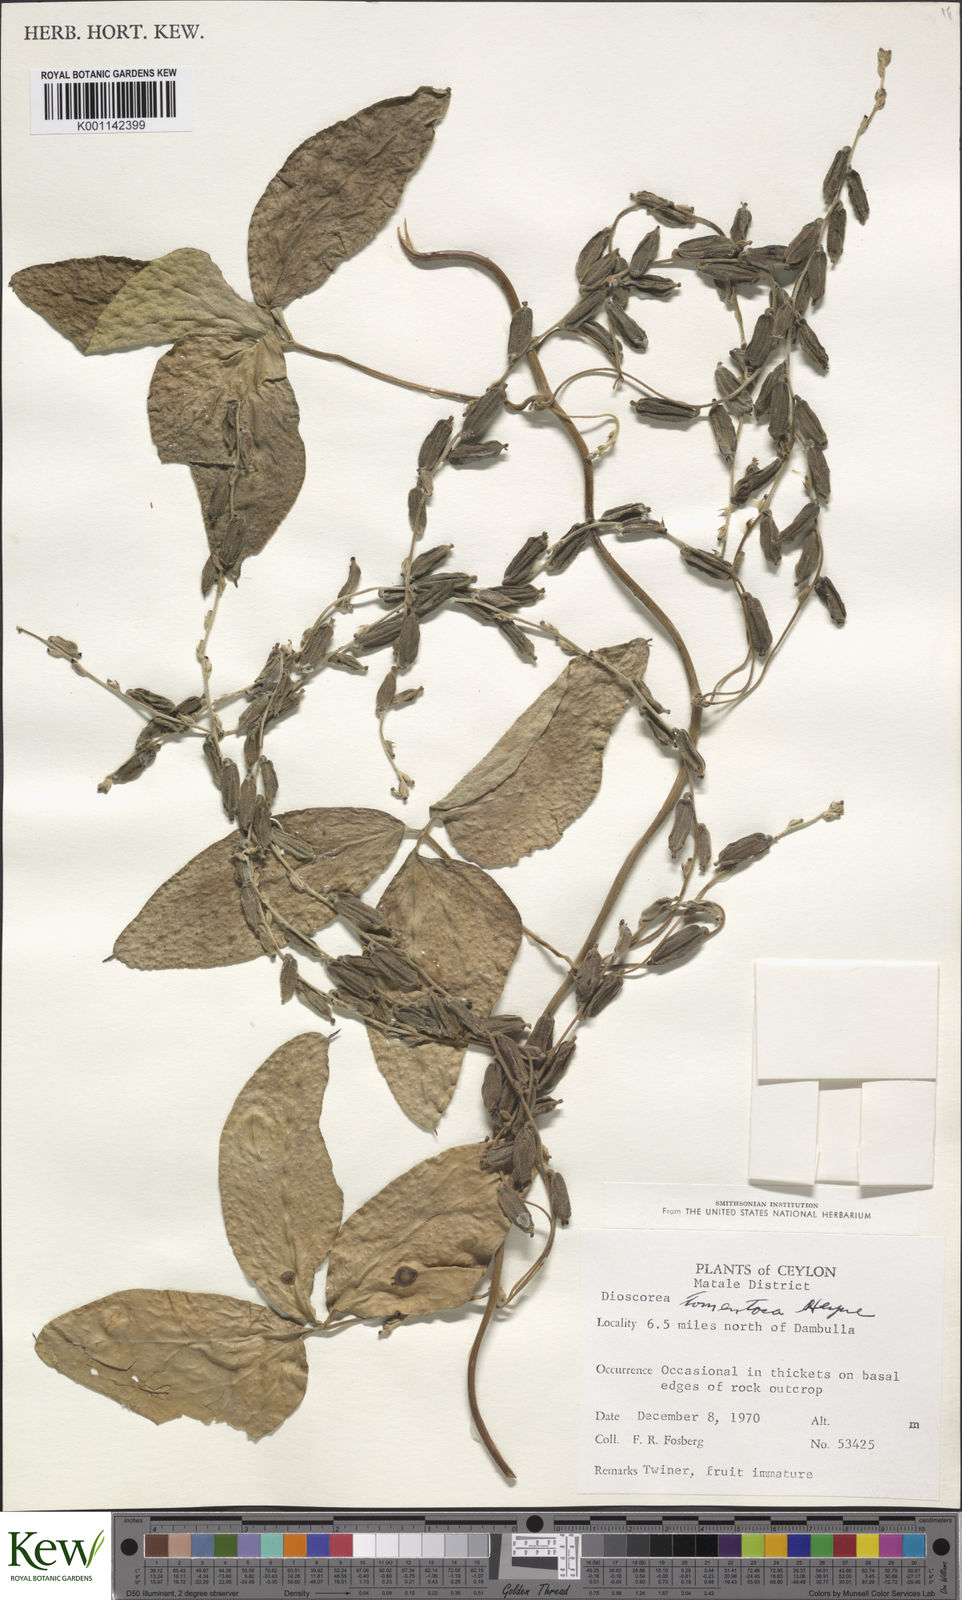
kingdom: Plantae
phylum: Tracheophyta
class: Liliopsida
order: Dioscoreales
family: Dioscoreaceae
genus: Dioscorea
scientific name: Dioscorea
